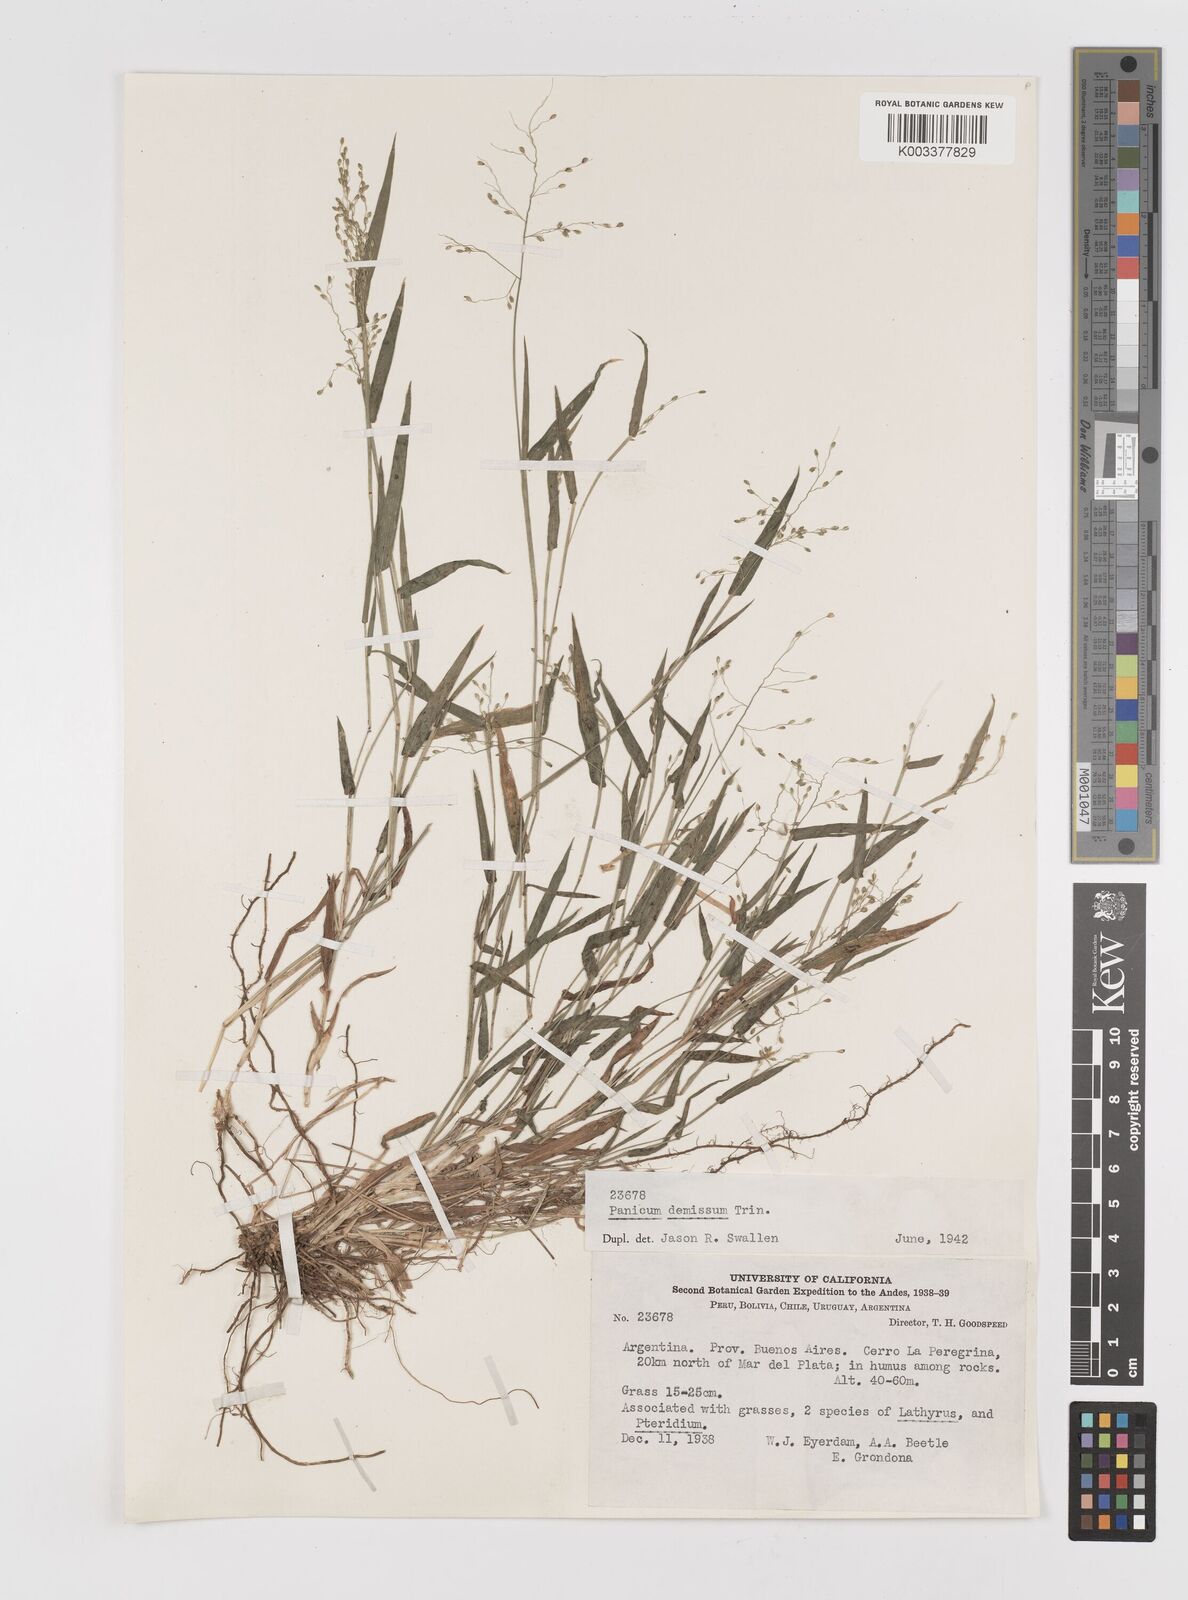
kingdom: Plantae
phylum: Tracheophyta
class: Liliopsida
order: Poales
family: Poaceae
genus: Dichanthelium
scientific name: Dichanthelium sabulorum
